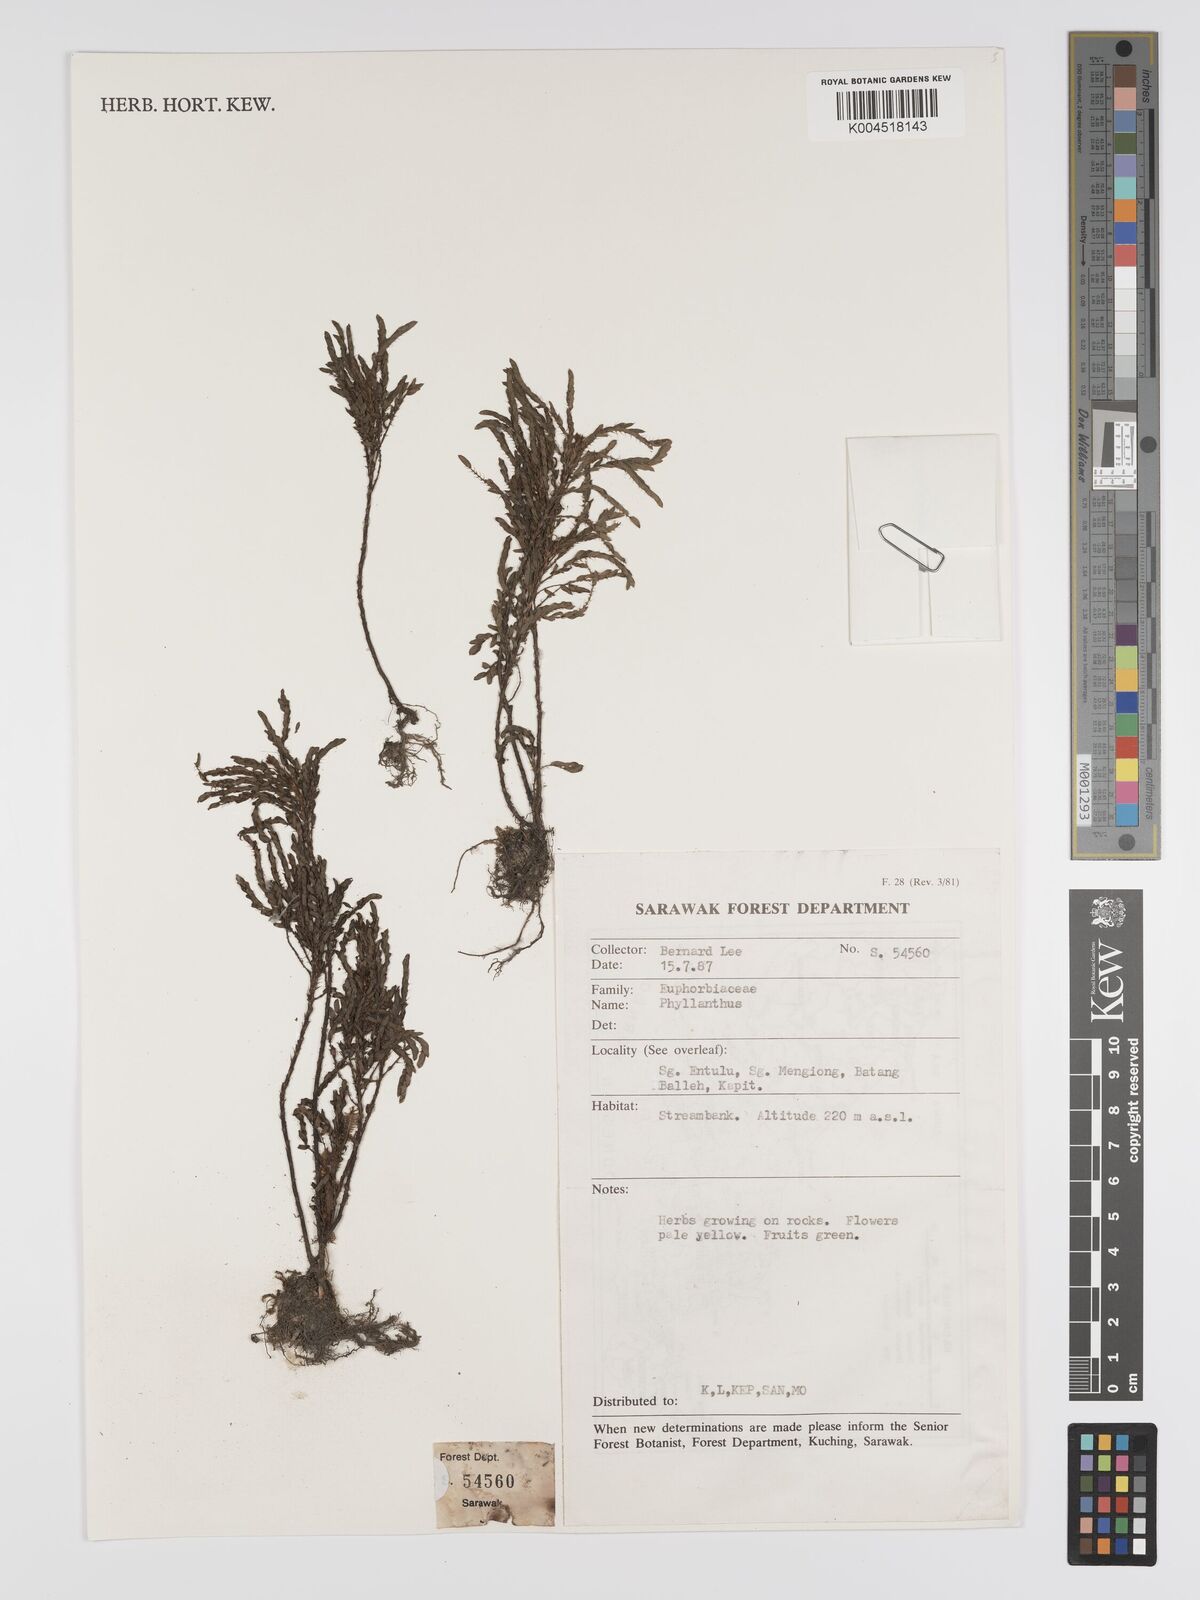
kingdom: Plantae
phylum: Tracheophyta
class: Magnoliopsida
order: Malpighiales
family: Phyllanthaceae
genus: Phyllanthus
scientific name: Phyllanthus
